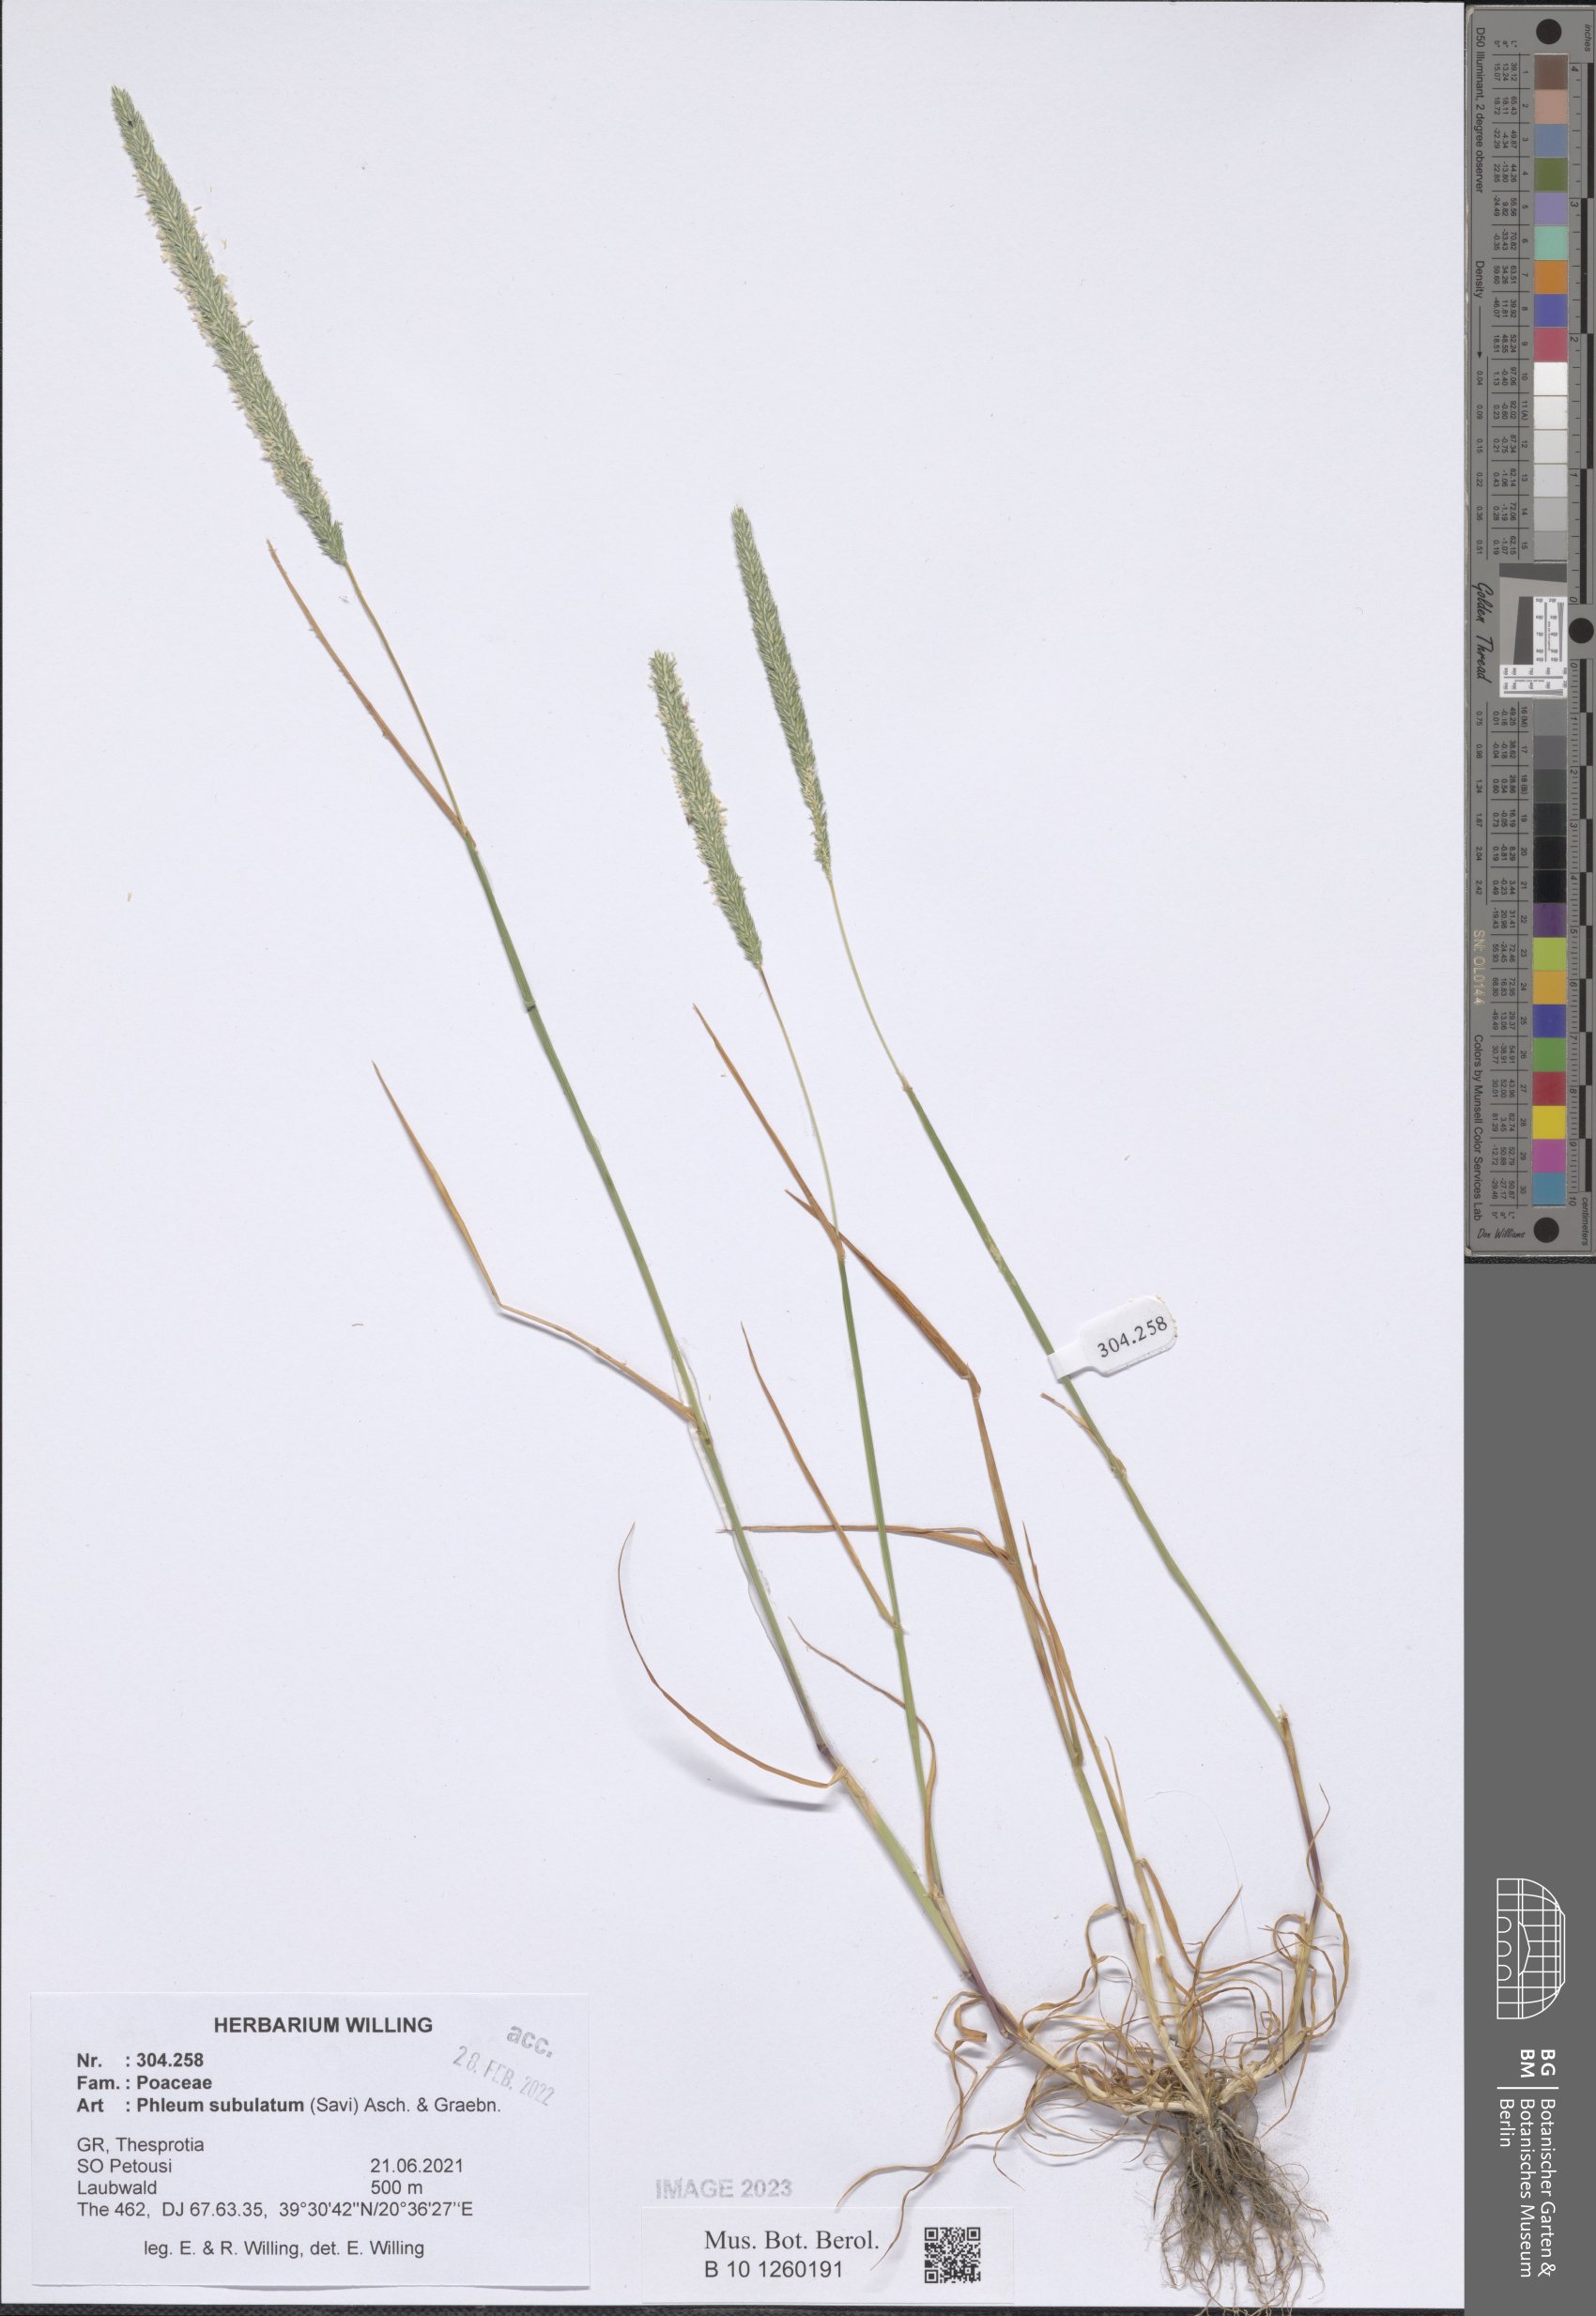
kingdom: Plantae
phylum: Tracheophyta
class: Liliopsida
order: Poales
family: Poaceae
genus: Phleum
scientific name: Phleum subulatum
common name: Italian timothy
